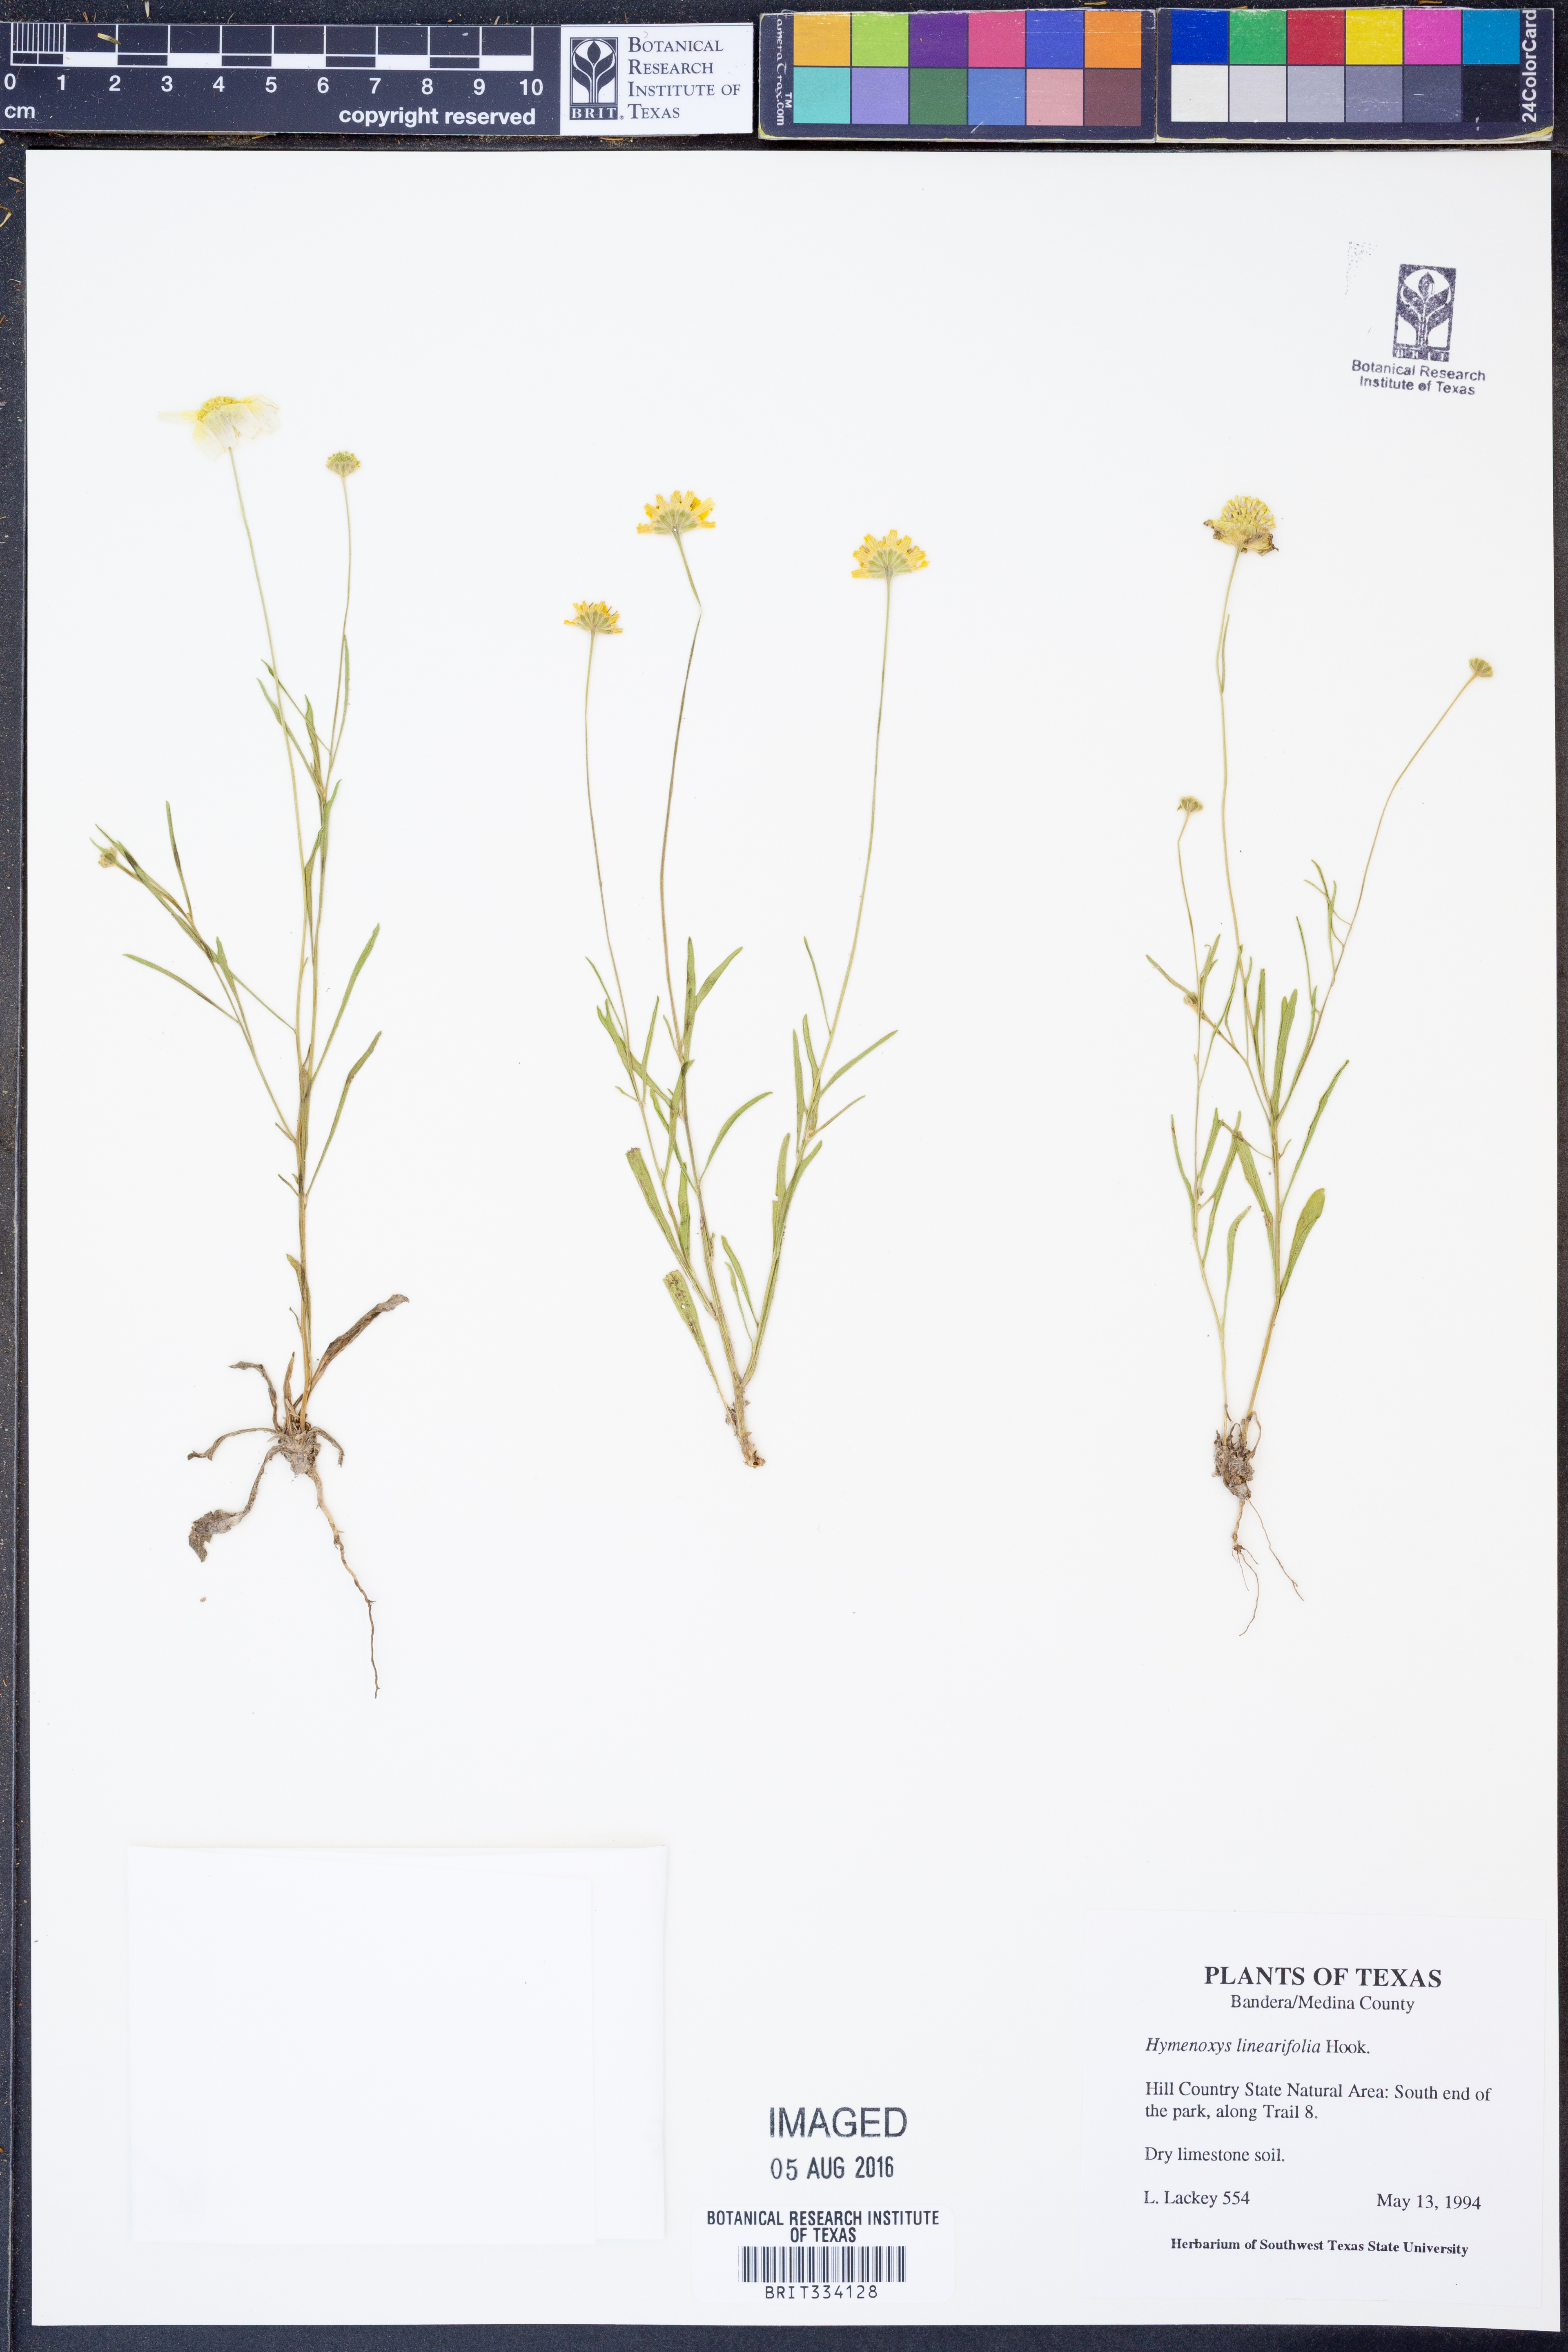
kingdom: Plantae
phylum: Tracheophyta
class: Magnoliopsida
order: Asterales
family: Asteraceae
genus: Tetraneuris
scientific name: Tetraneuris linearifolia
